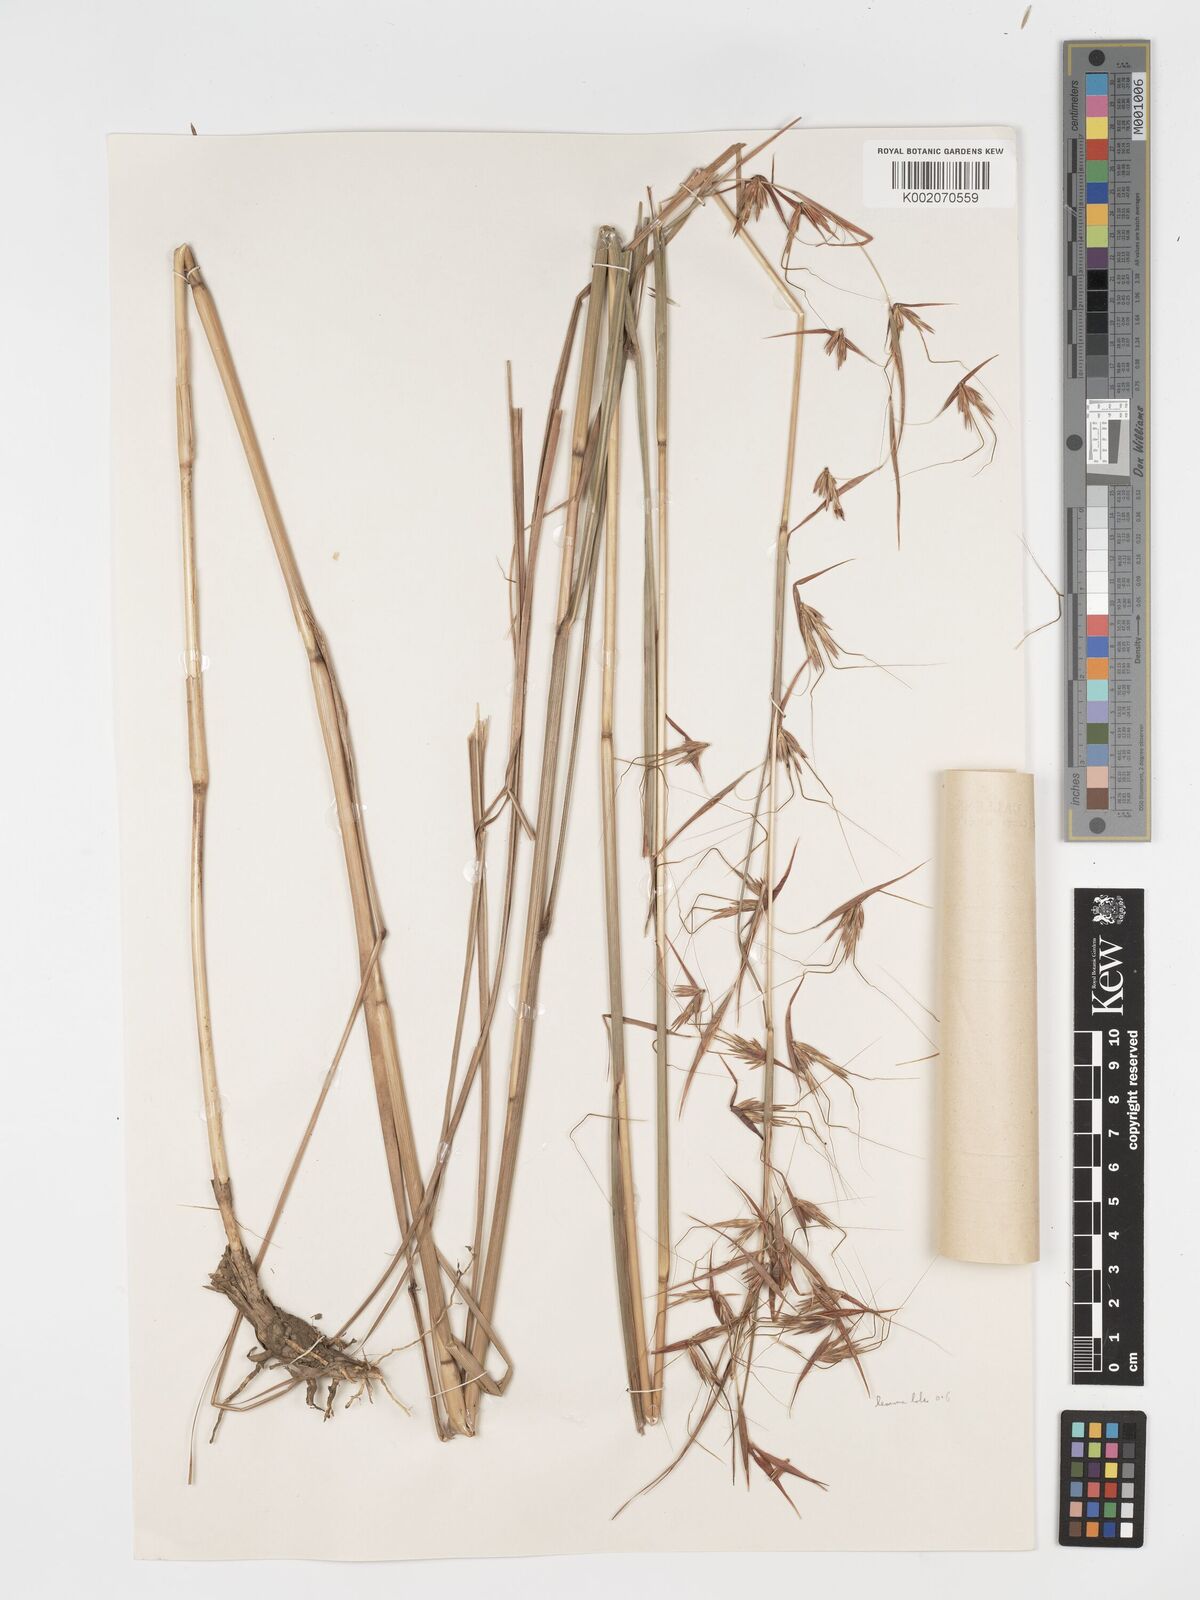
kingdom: Plantae
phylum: Tracheophyta
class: Liliopsida
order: Poales
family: Poaceae
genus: Hyparrhenia
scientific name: Hyparrhenia diplandra
